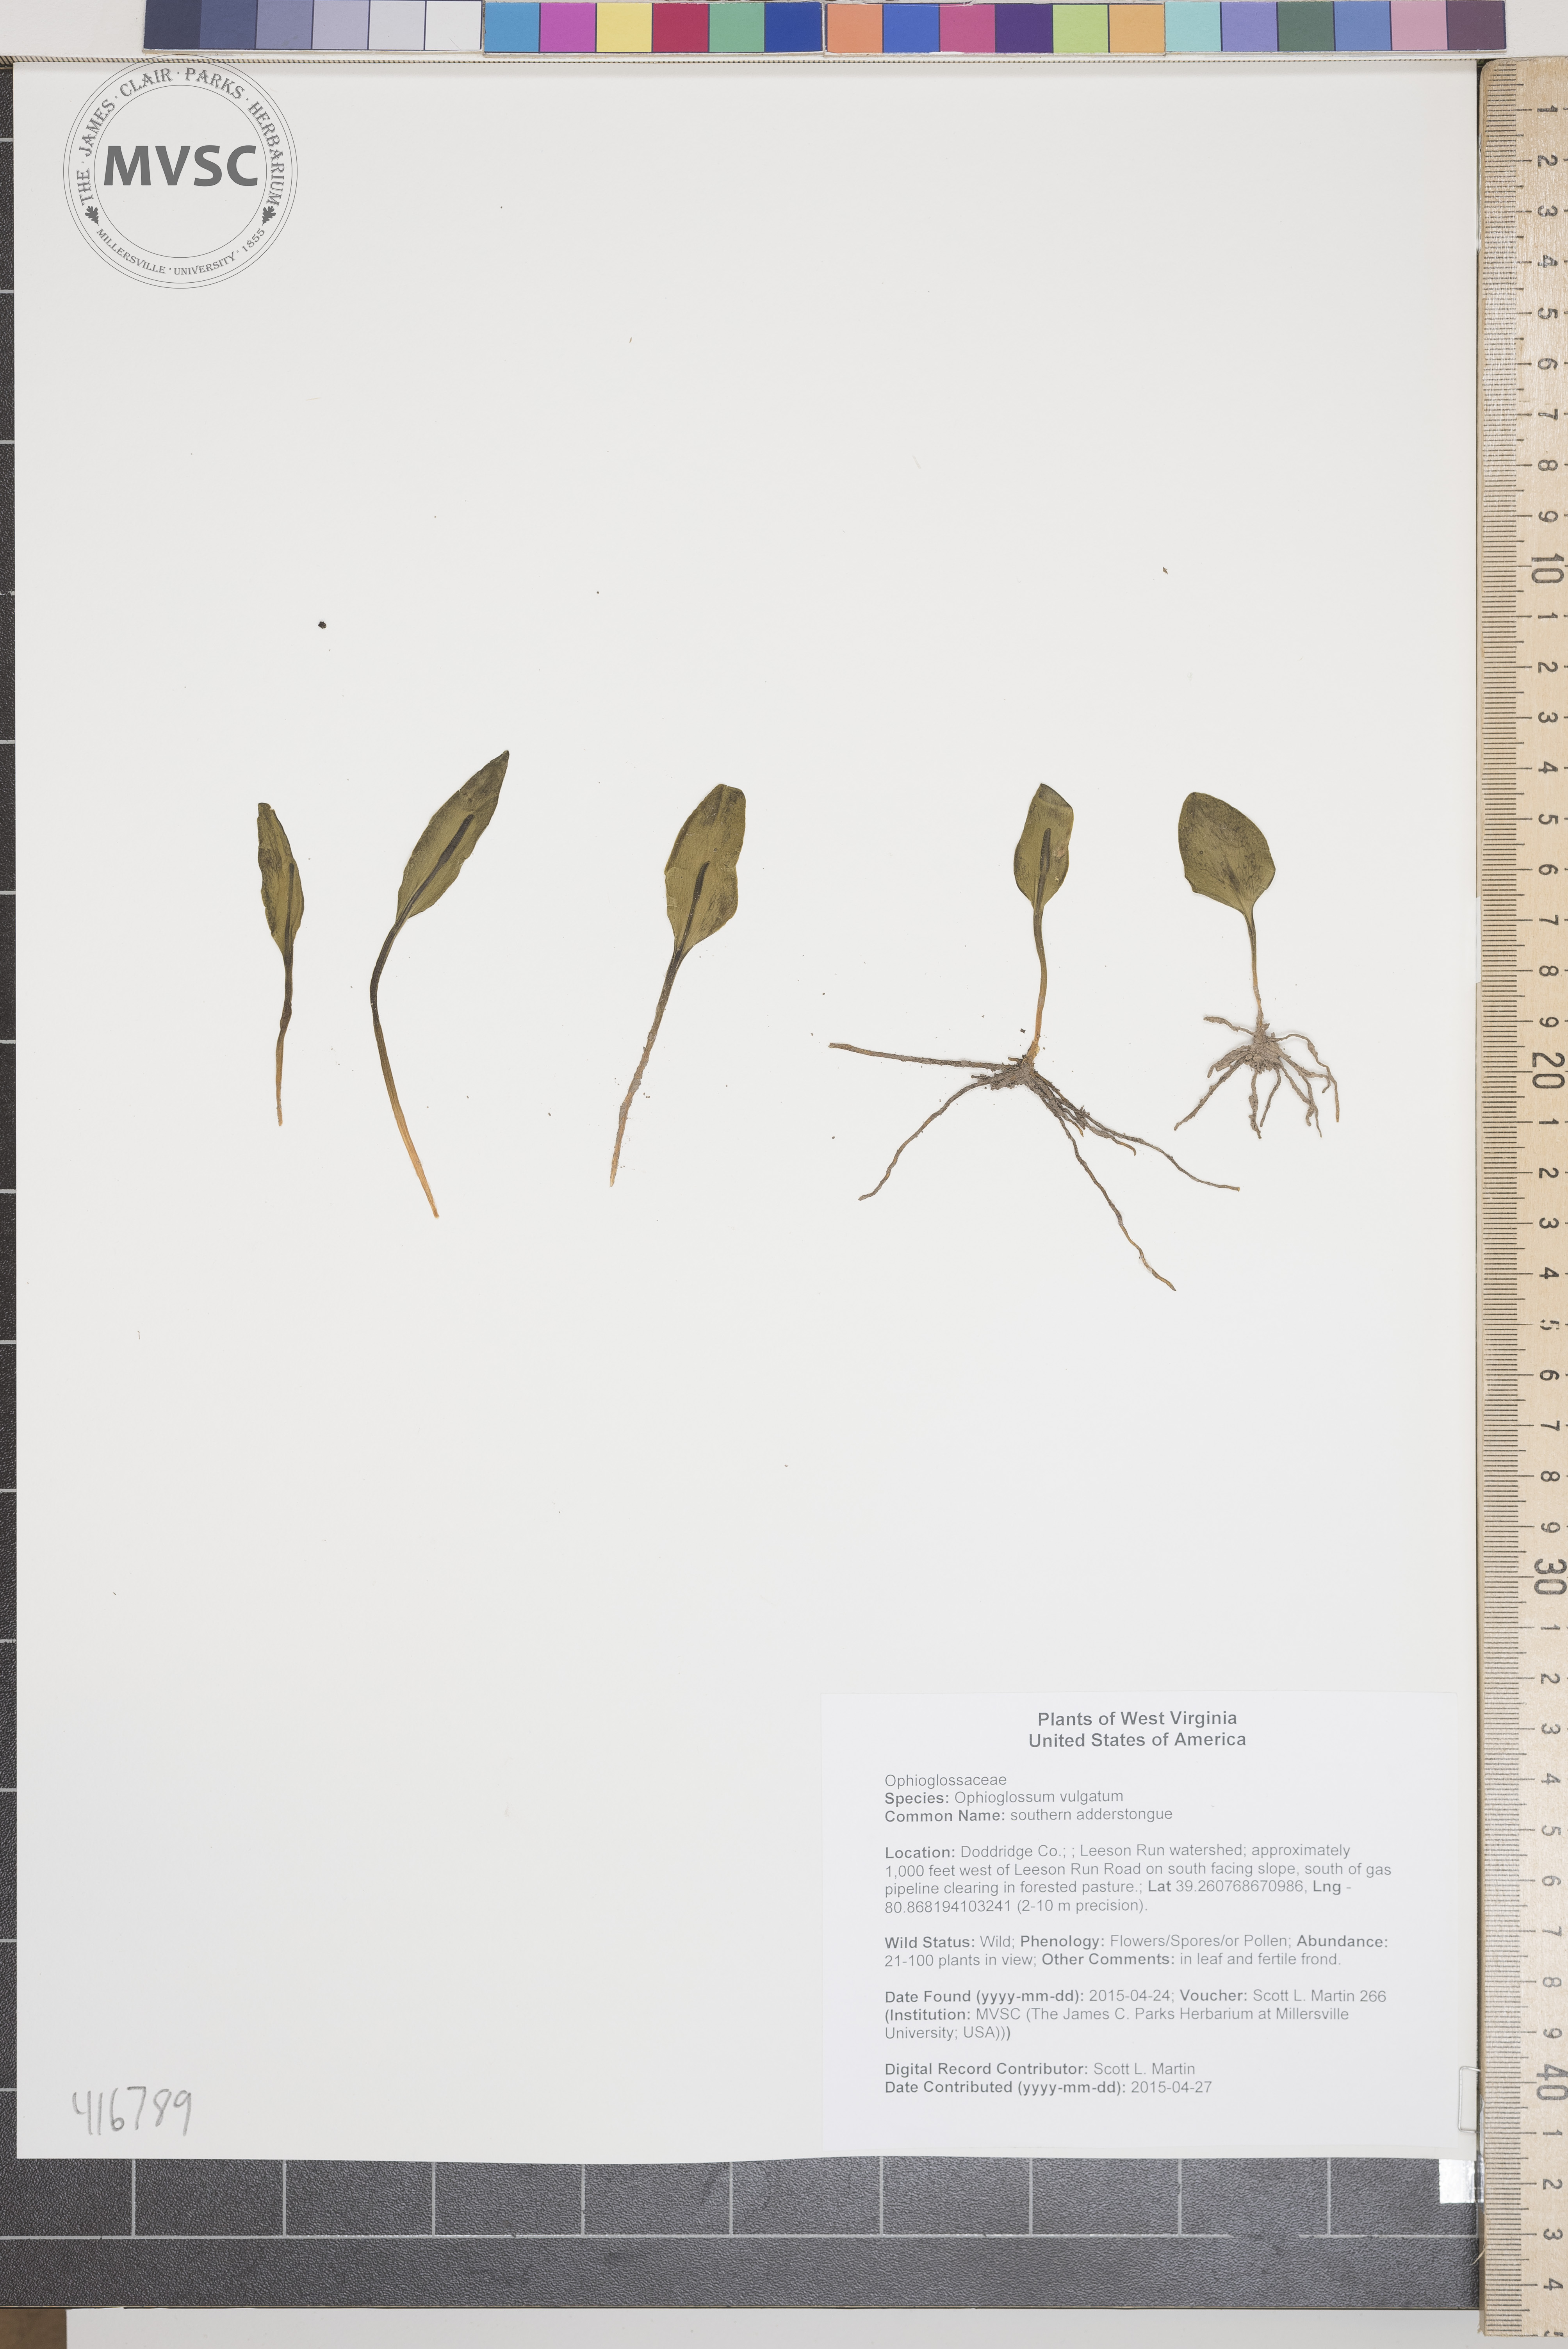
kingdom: Plantae
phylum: Tracheophyta
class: Polypodiopsida
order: Ophioglossales
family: Ophioglossaceae
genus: Ophioglossum
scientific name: Ophioglossum vulgatum
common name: southern adderstongue
